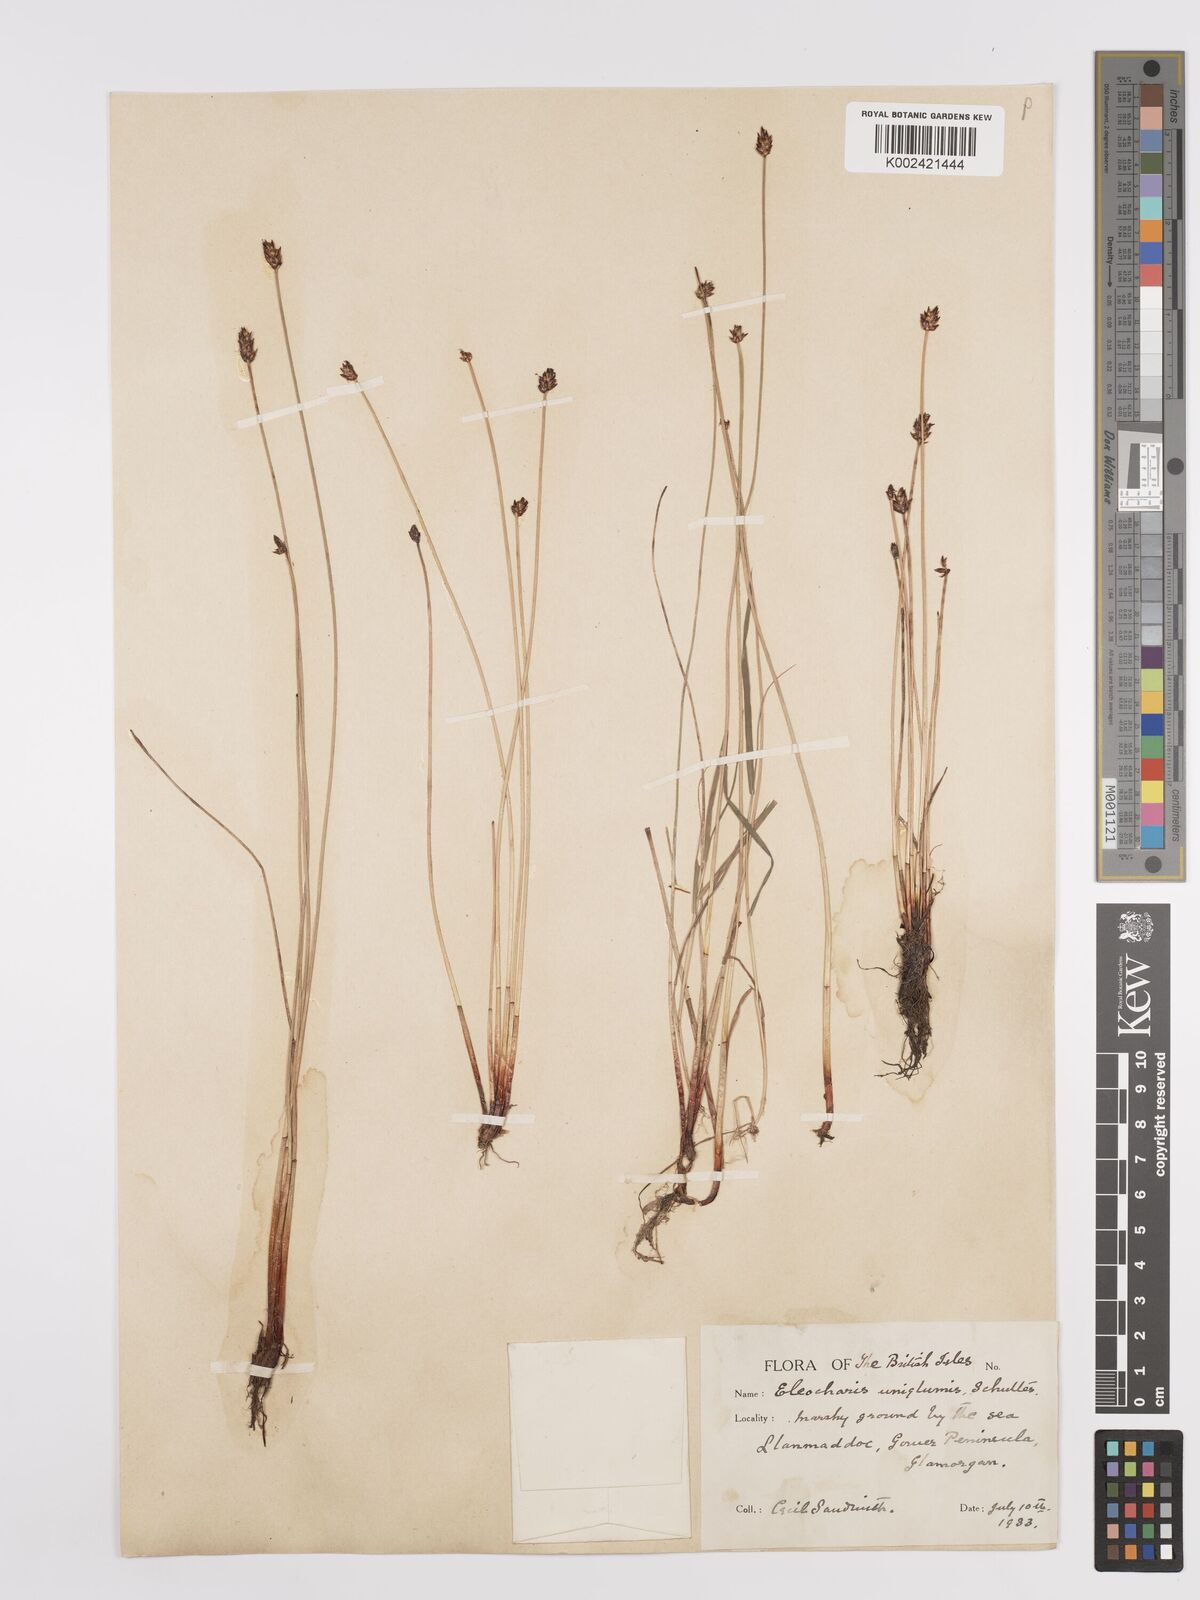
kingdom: Plantae
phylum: Tracheophyta
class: Liliopsida
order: Poales
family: Cyperaceae
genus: Eleocharis
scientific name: Eleocharis uniglumis
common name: Slender spike-rush
